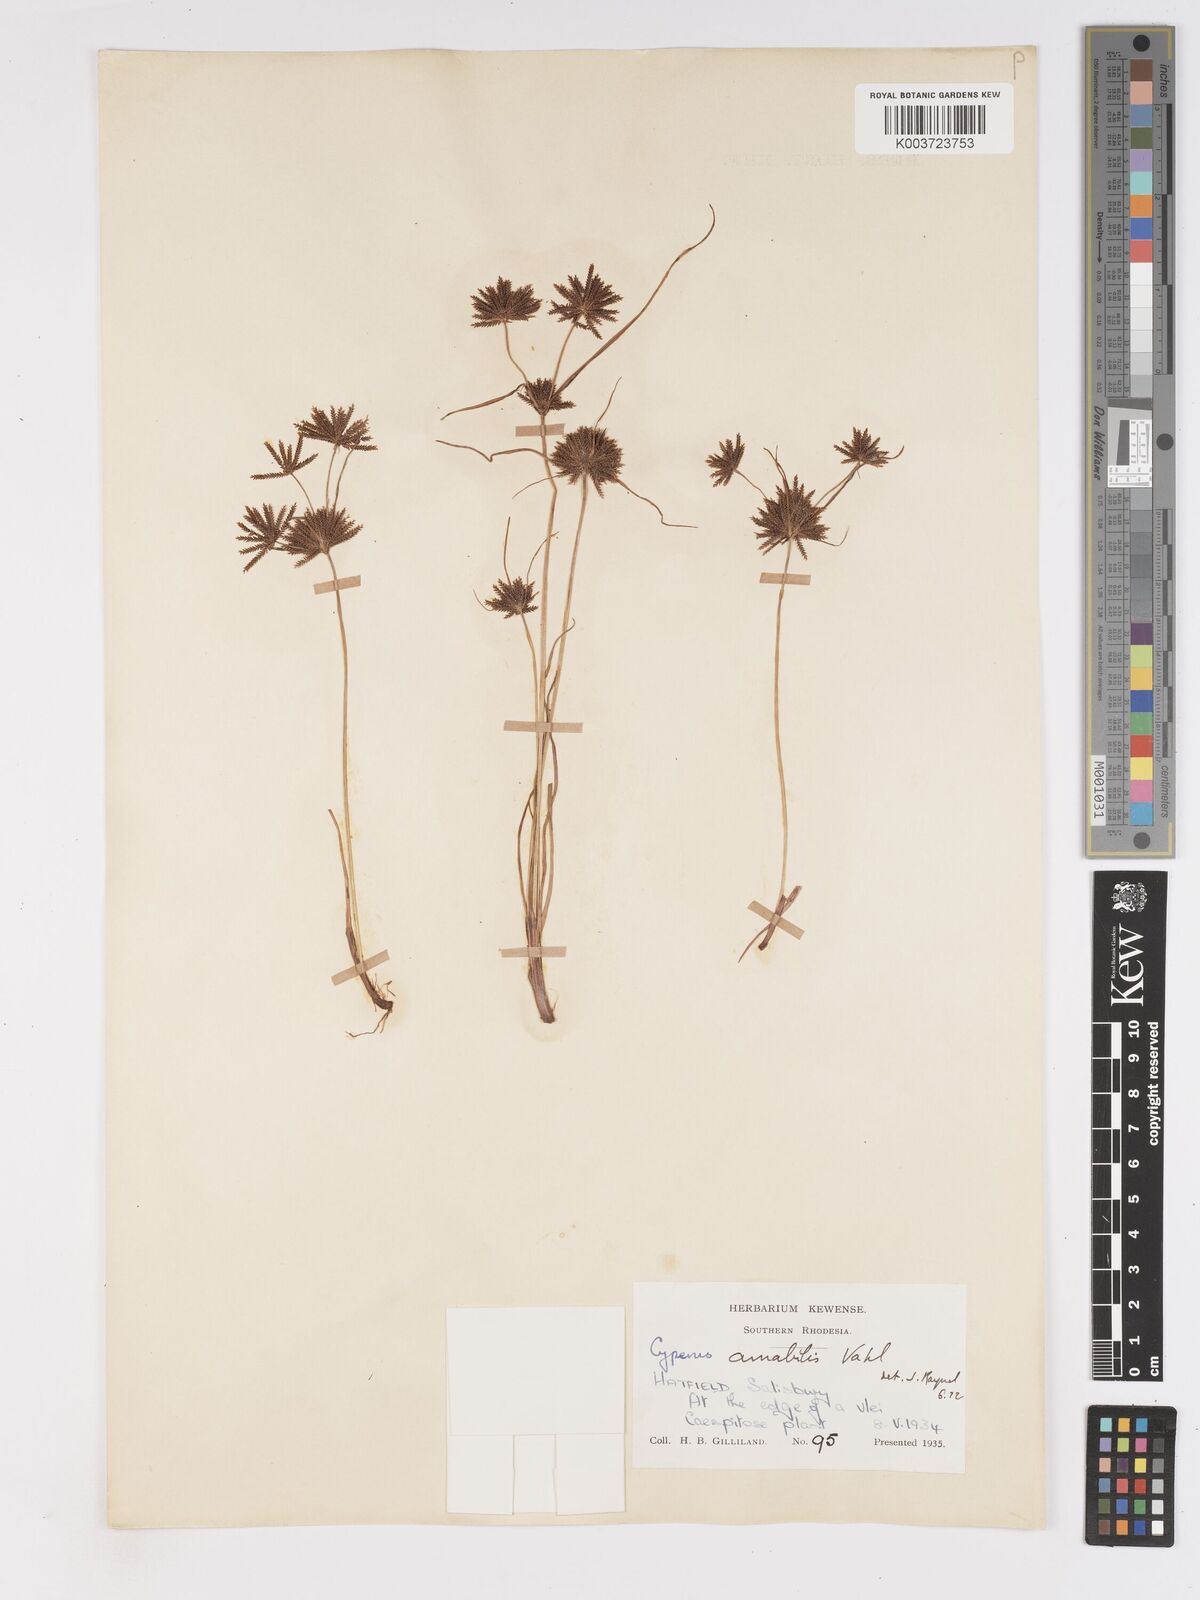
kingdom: Plantae
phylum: Tracheophyta
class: Liliopsida
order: Poales
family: Cyperaceae
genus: Cyperus
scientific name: Cyperus amabilis
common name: Foothill flat sedge
